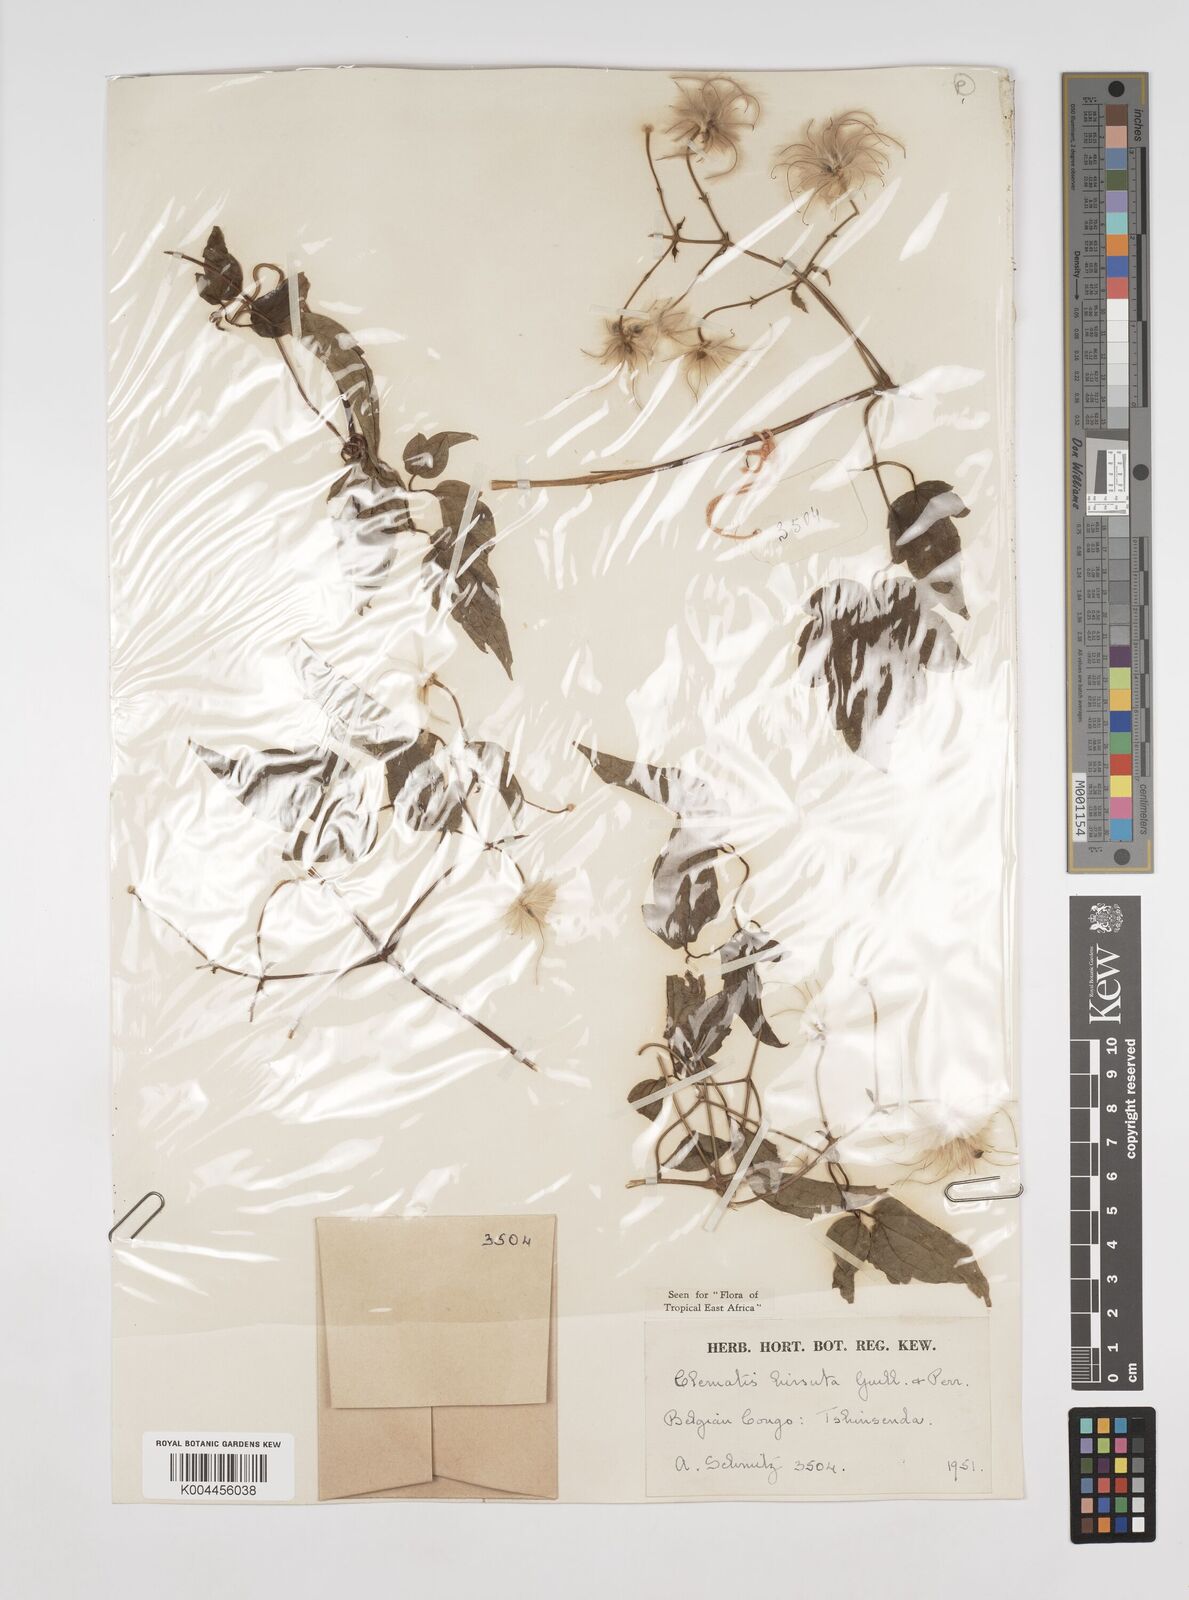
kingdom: Plantae
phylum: Tracheophyta
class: Magnoliopsida
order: Ranunculales
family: Ranunculaceae
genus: Clematis
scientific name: Clematis hirsuta
